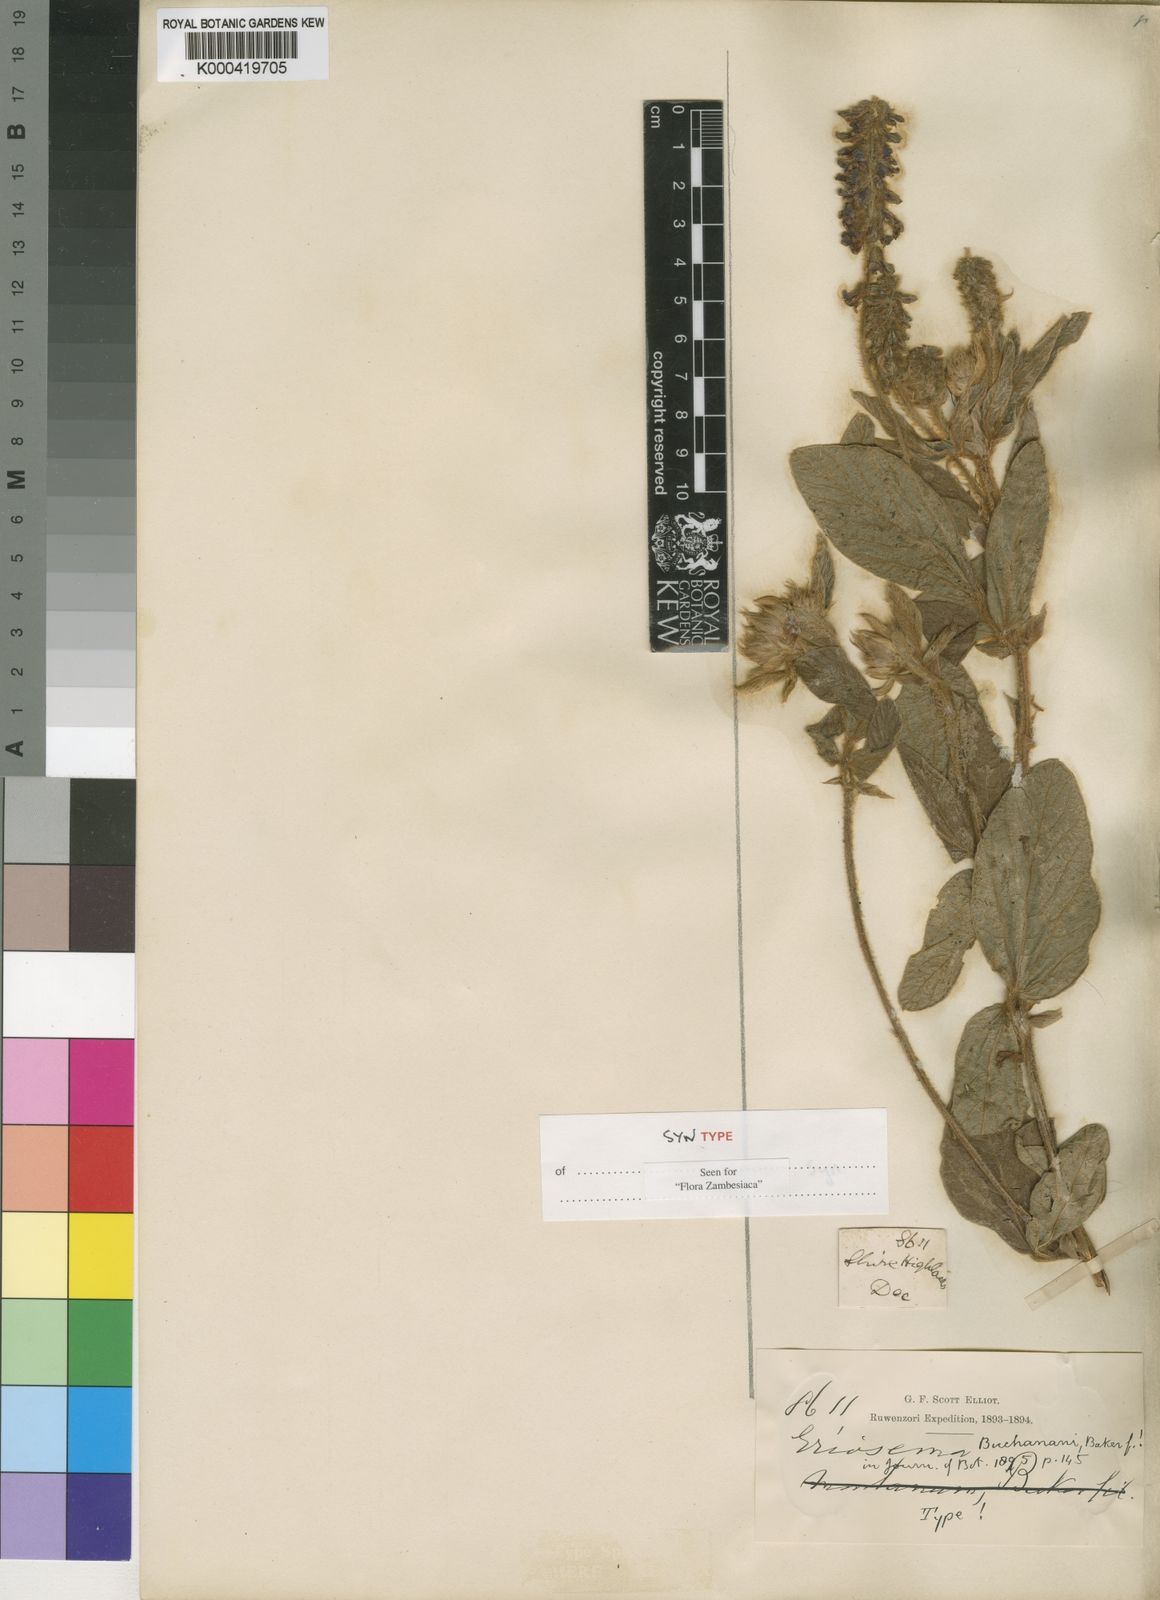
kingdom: Plantae
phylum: Tracheophyta
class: Magnoliopsida
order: Fabales
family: Fabaceae
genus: Eriosema
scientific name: Eriosema buchananii
